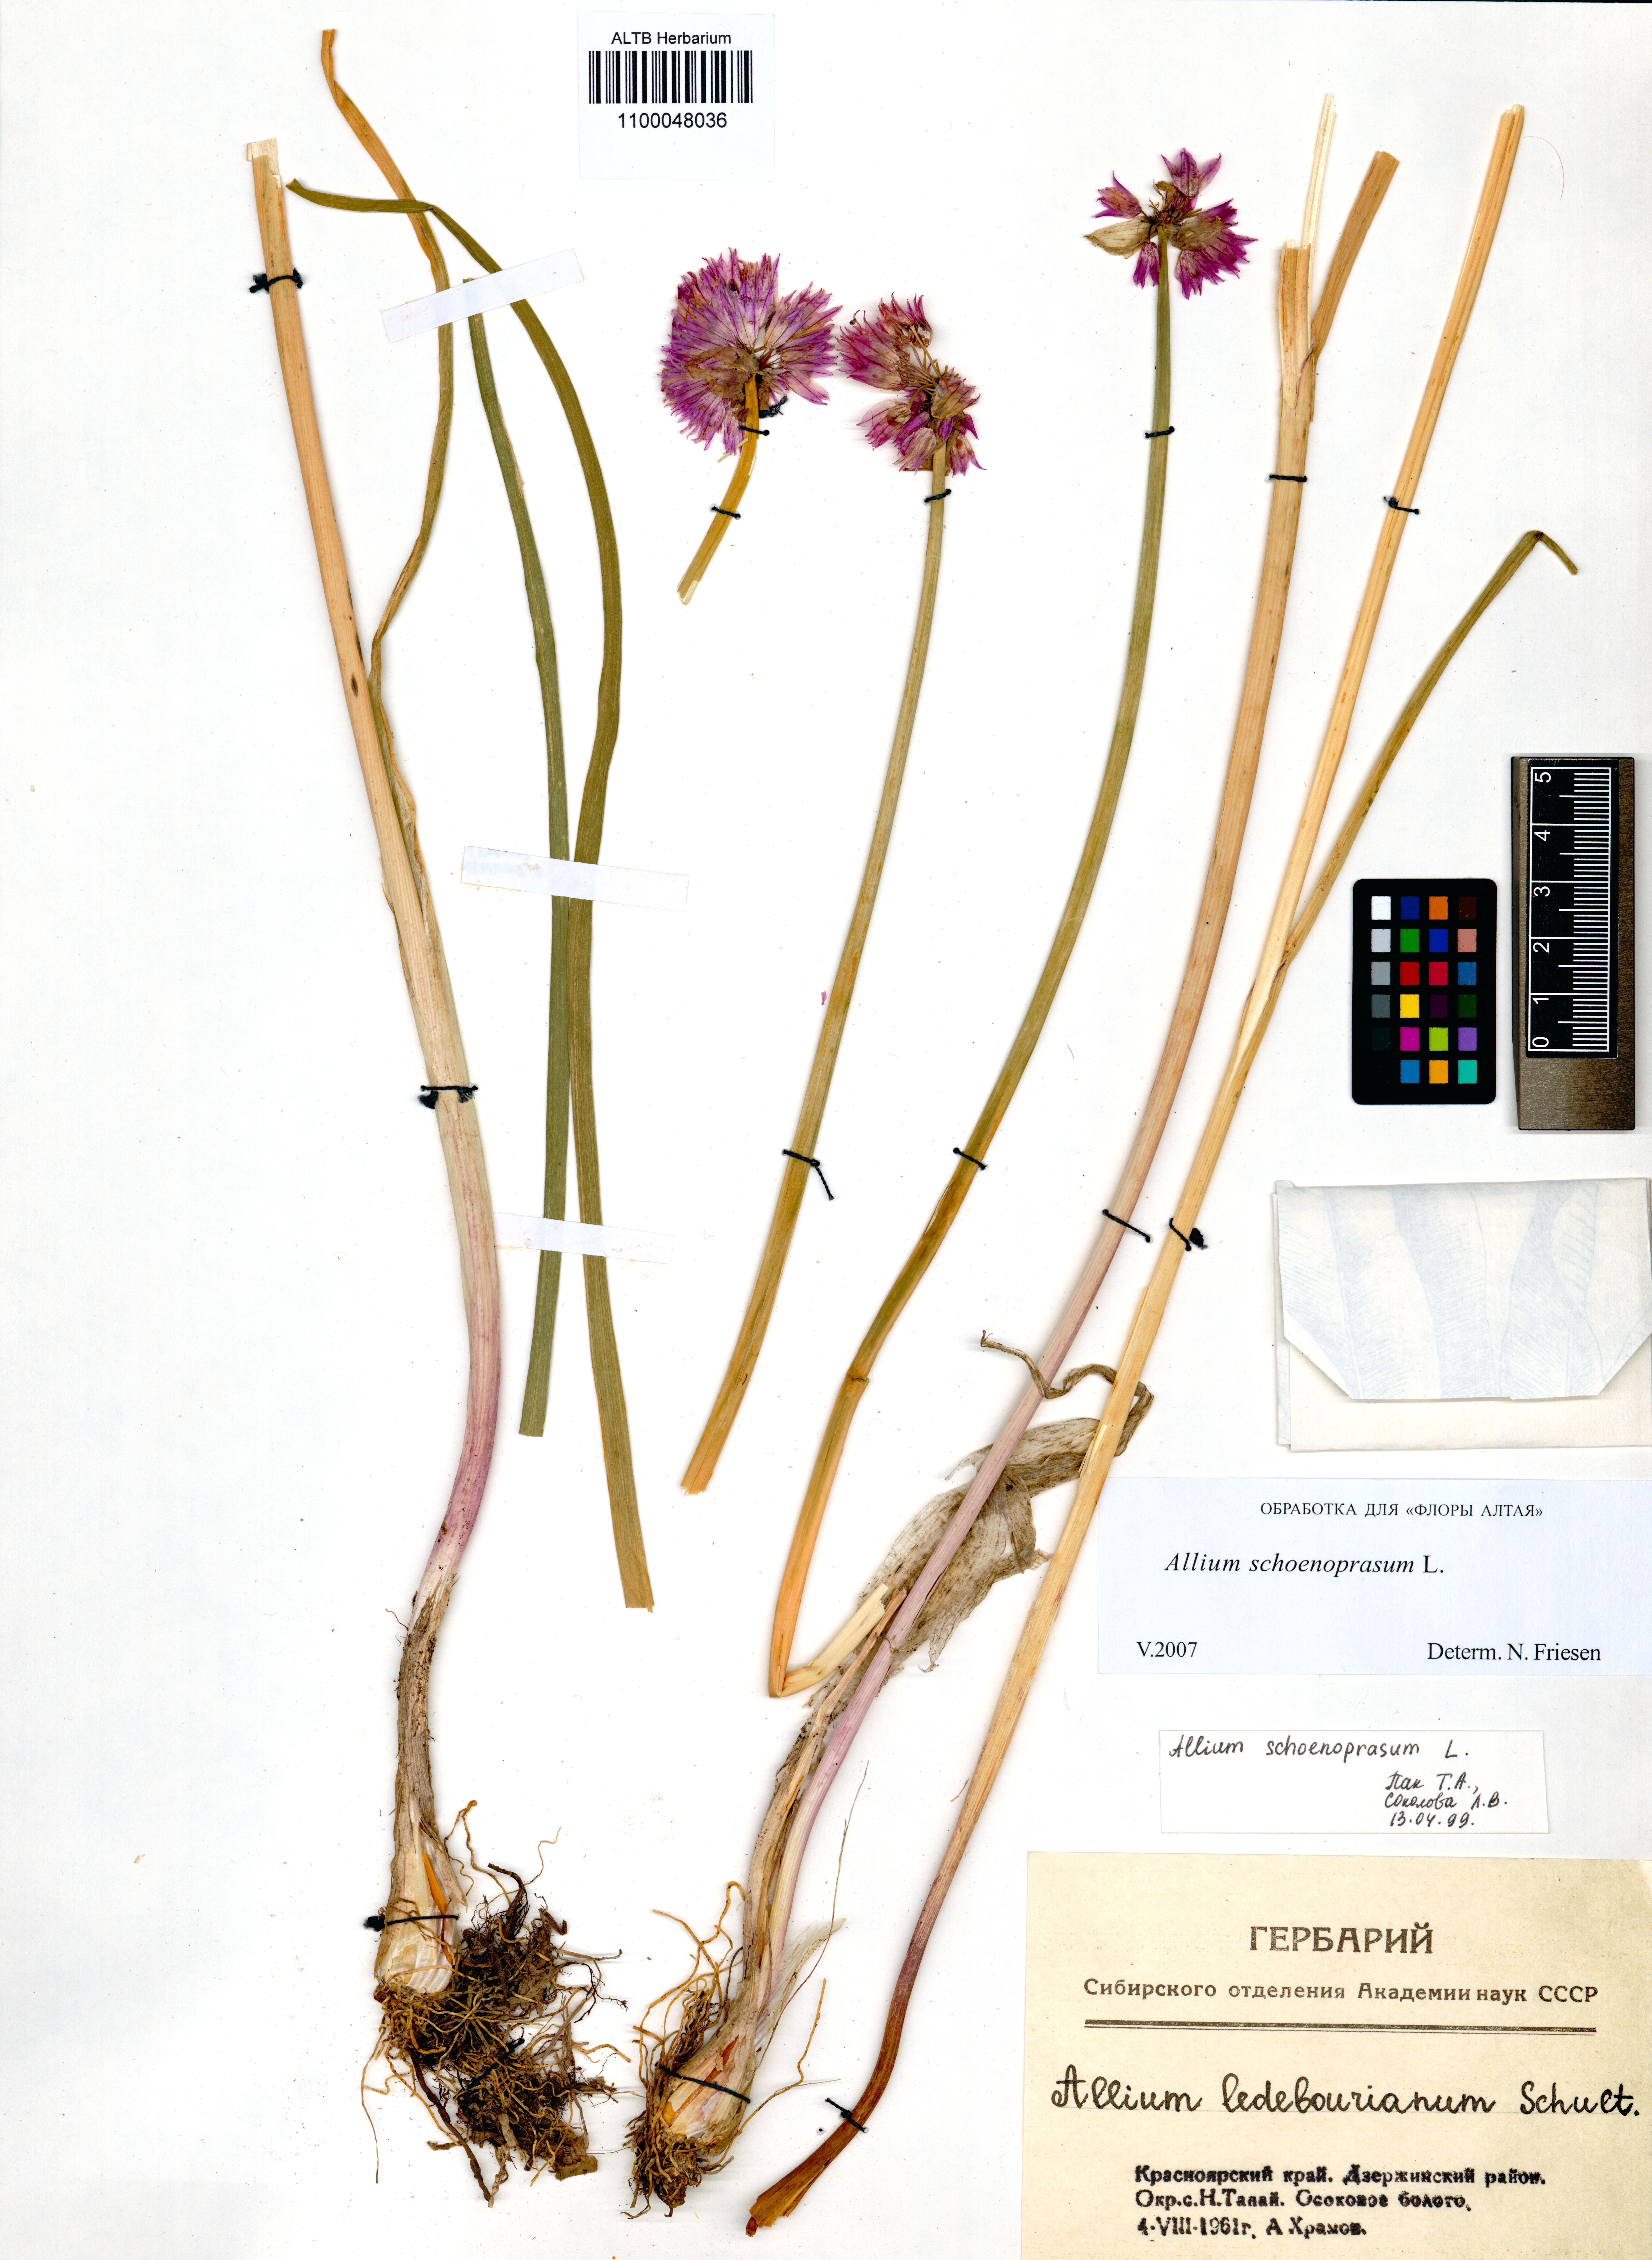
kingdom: Plantae
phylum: Tracheophyta
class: Liliopsida
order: Asparagales
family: Amaryllidaceae
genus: Allium
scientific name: Allium schoenoprasum
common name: Chives
